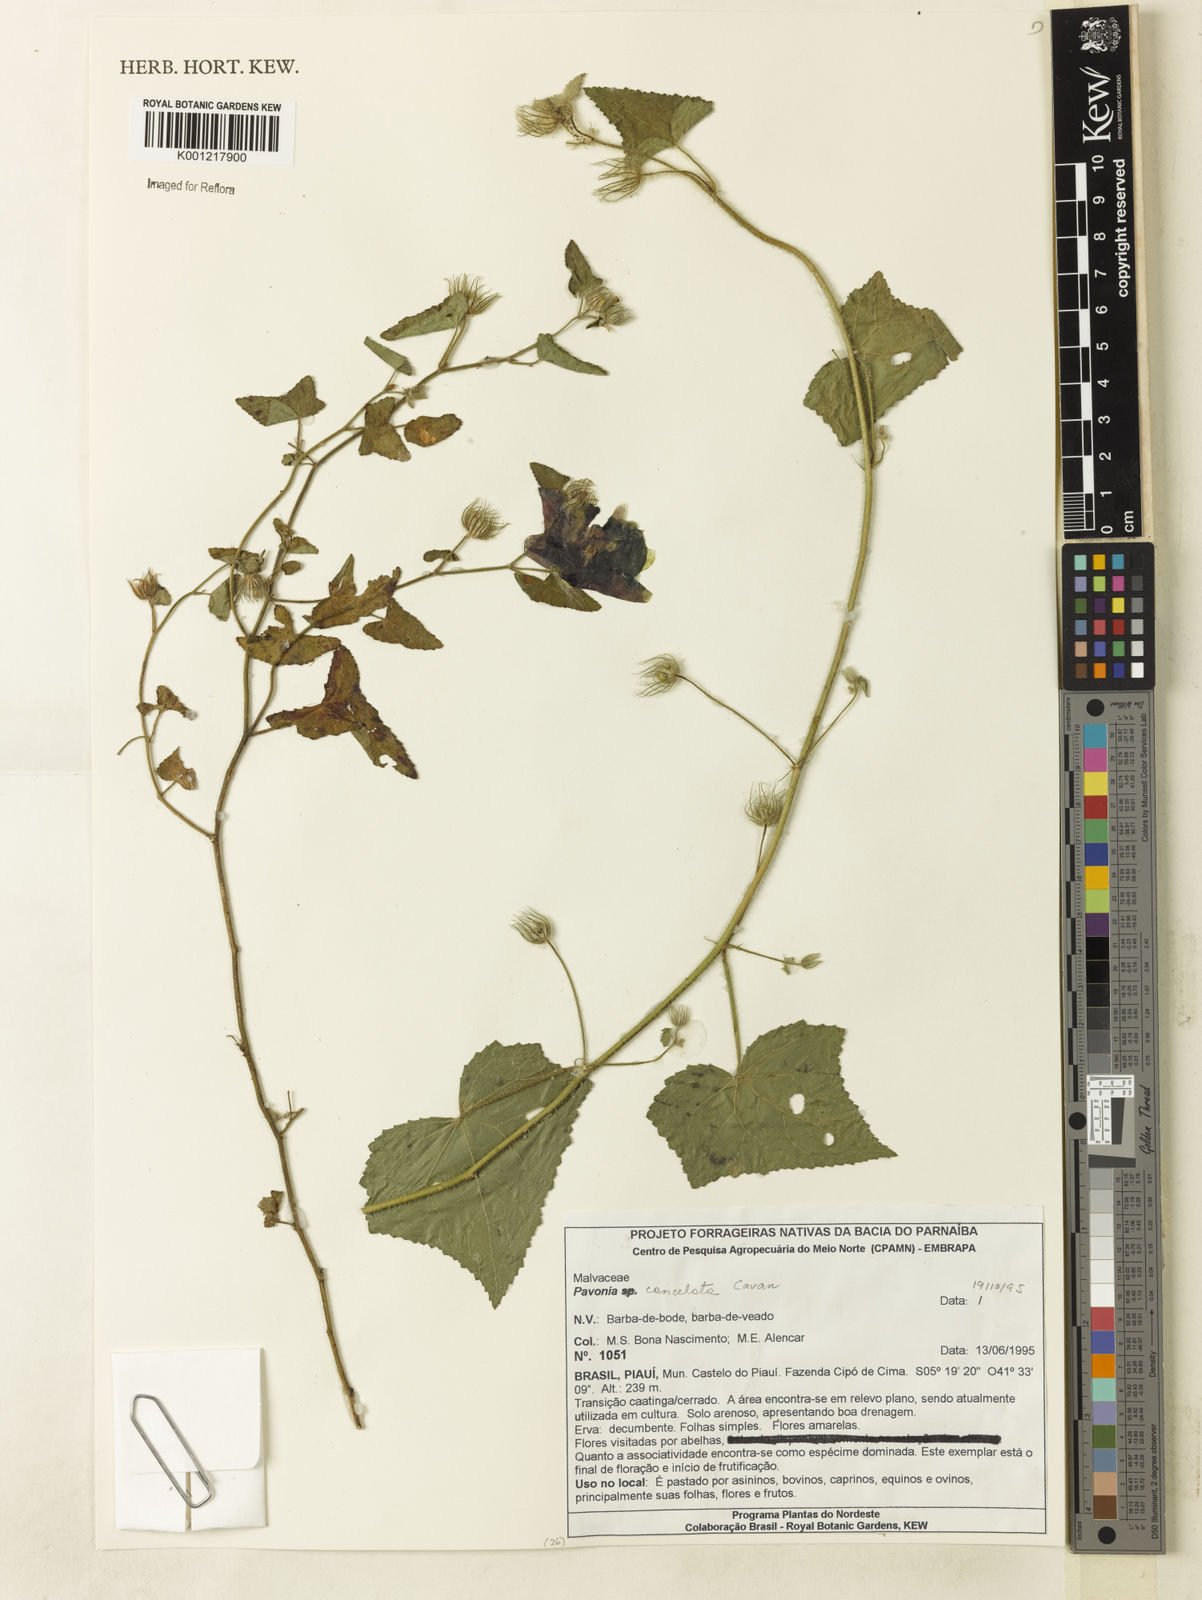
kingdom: Plantae
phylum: Tracheophyta
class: Magnoliopsida
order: Malvales
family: Malvaceae
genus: Pavonia
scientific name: Pavonia cancellata
